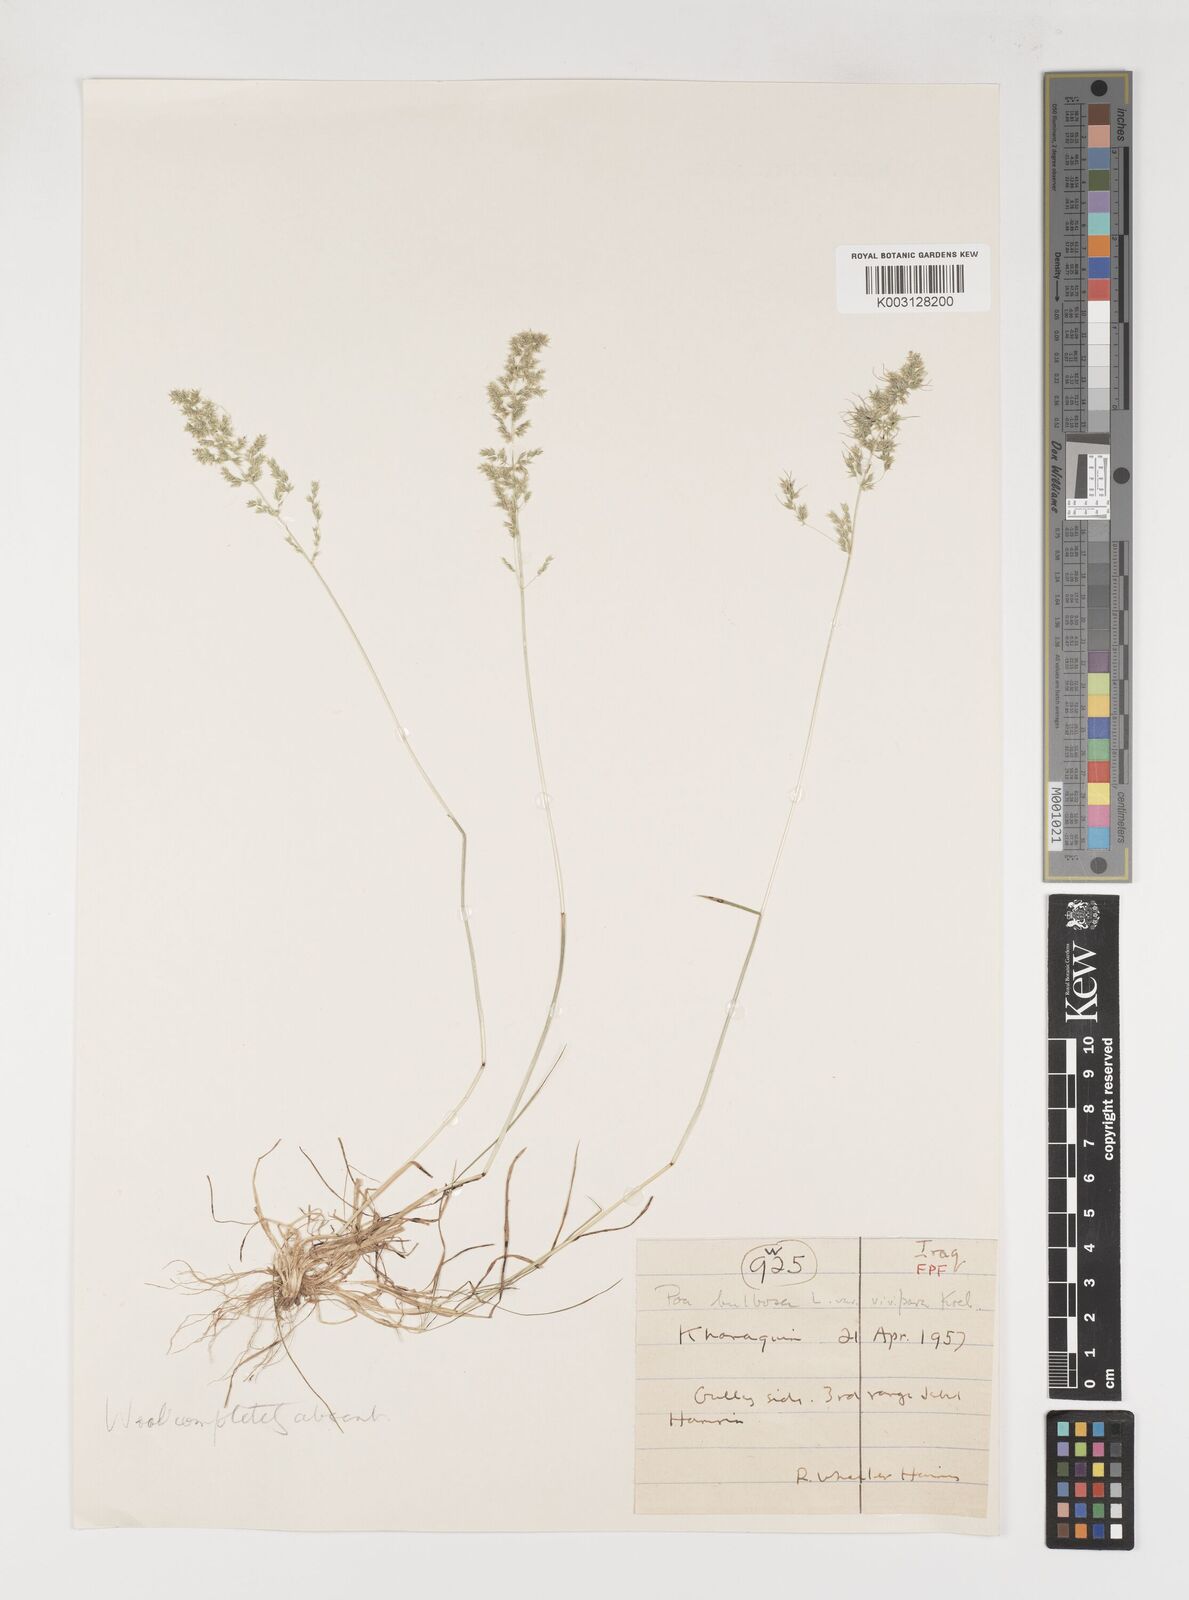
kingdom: Plantae
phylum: Tracheophyta
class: Liliopsida
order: Poales
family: Poaceae
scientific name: Poaceae
